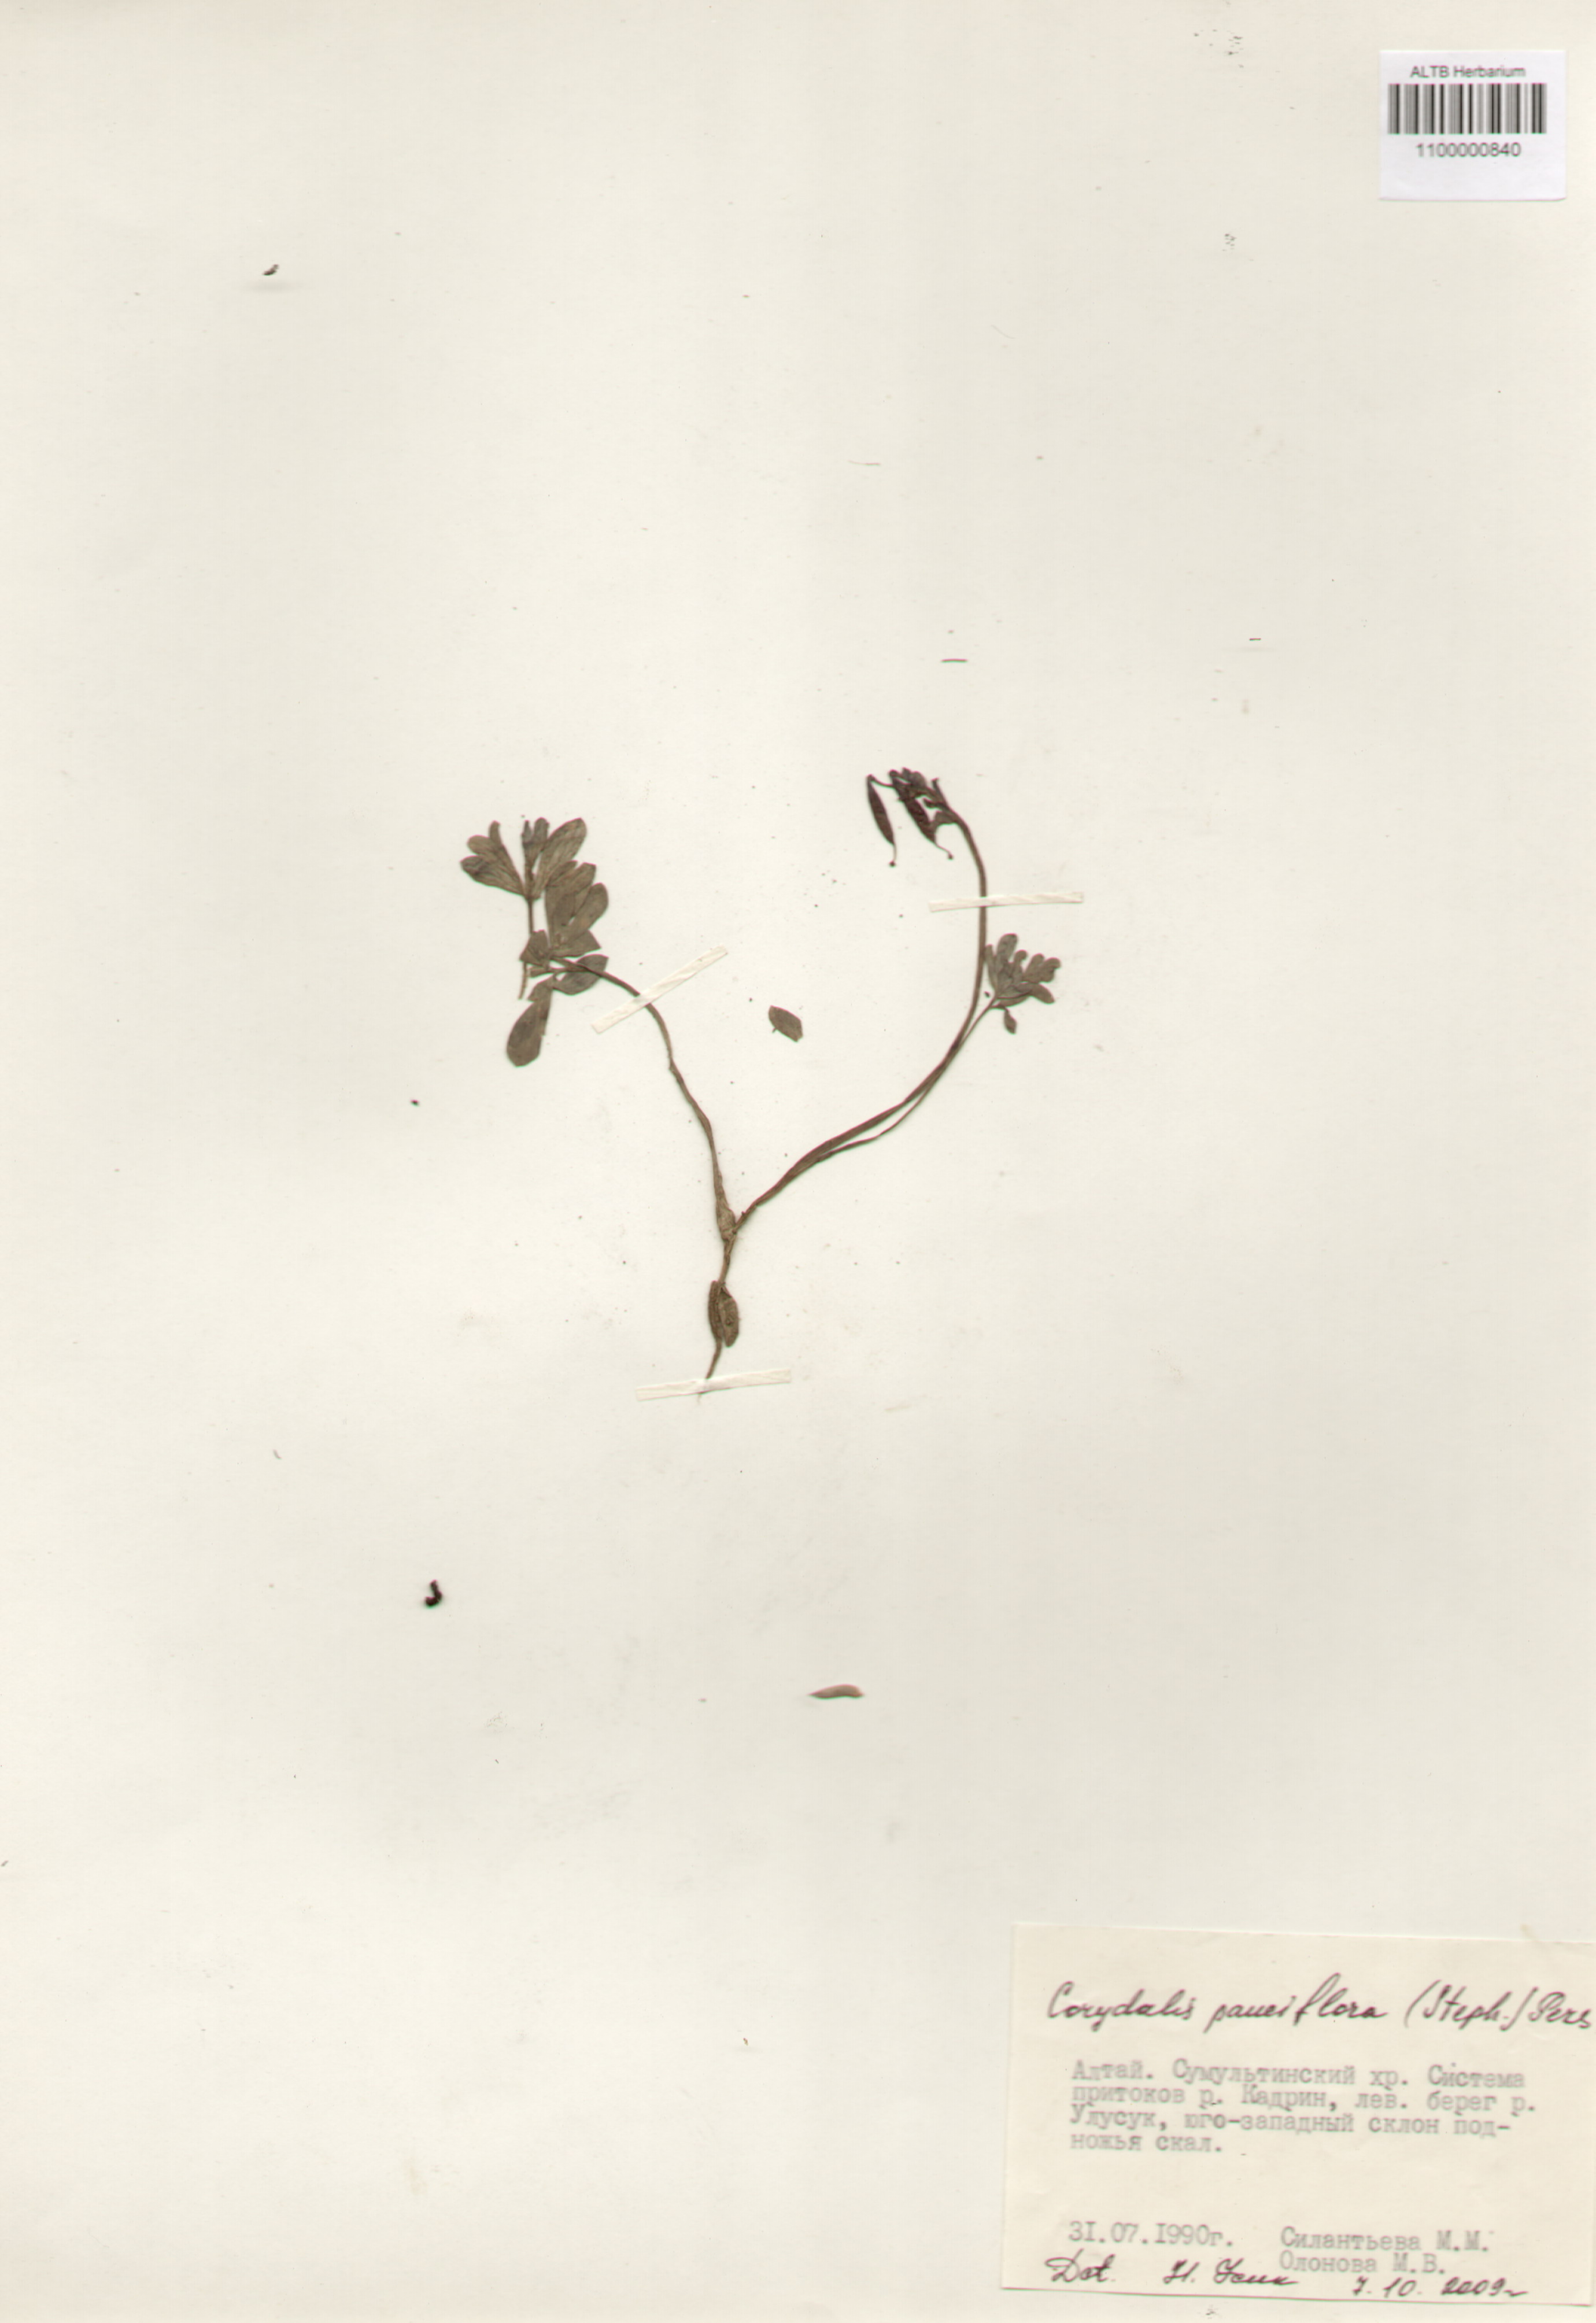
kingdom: Plantae
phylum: Tracheophyta
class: Magnoliopsida
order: Ranunculales
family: Papaveraceae
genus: Corydalis
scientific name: Corydalis pauciflora
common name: Blue corydalis
